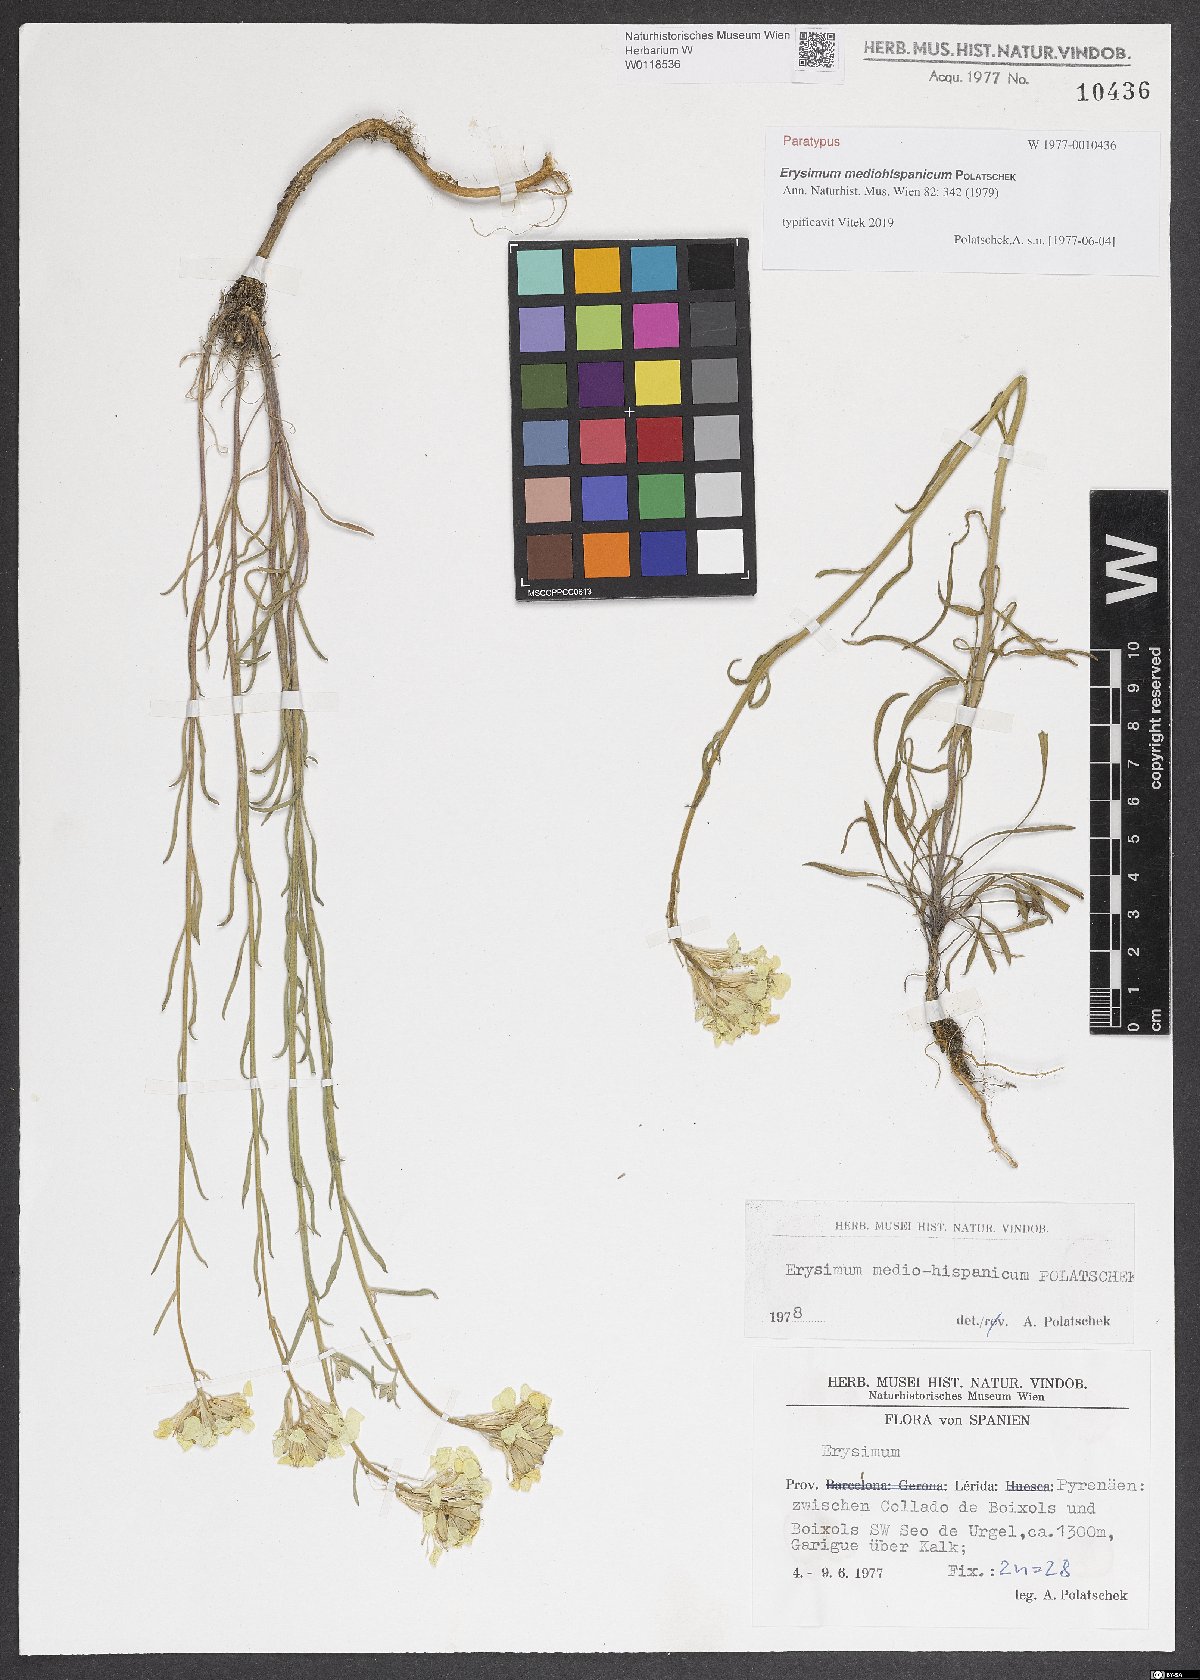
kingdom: Plantae
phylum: Tracheophyta
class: Magnoliopsida
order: Brassicales
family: Brassicaceae
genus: Erysimum
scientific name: Erysimum nevadense
